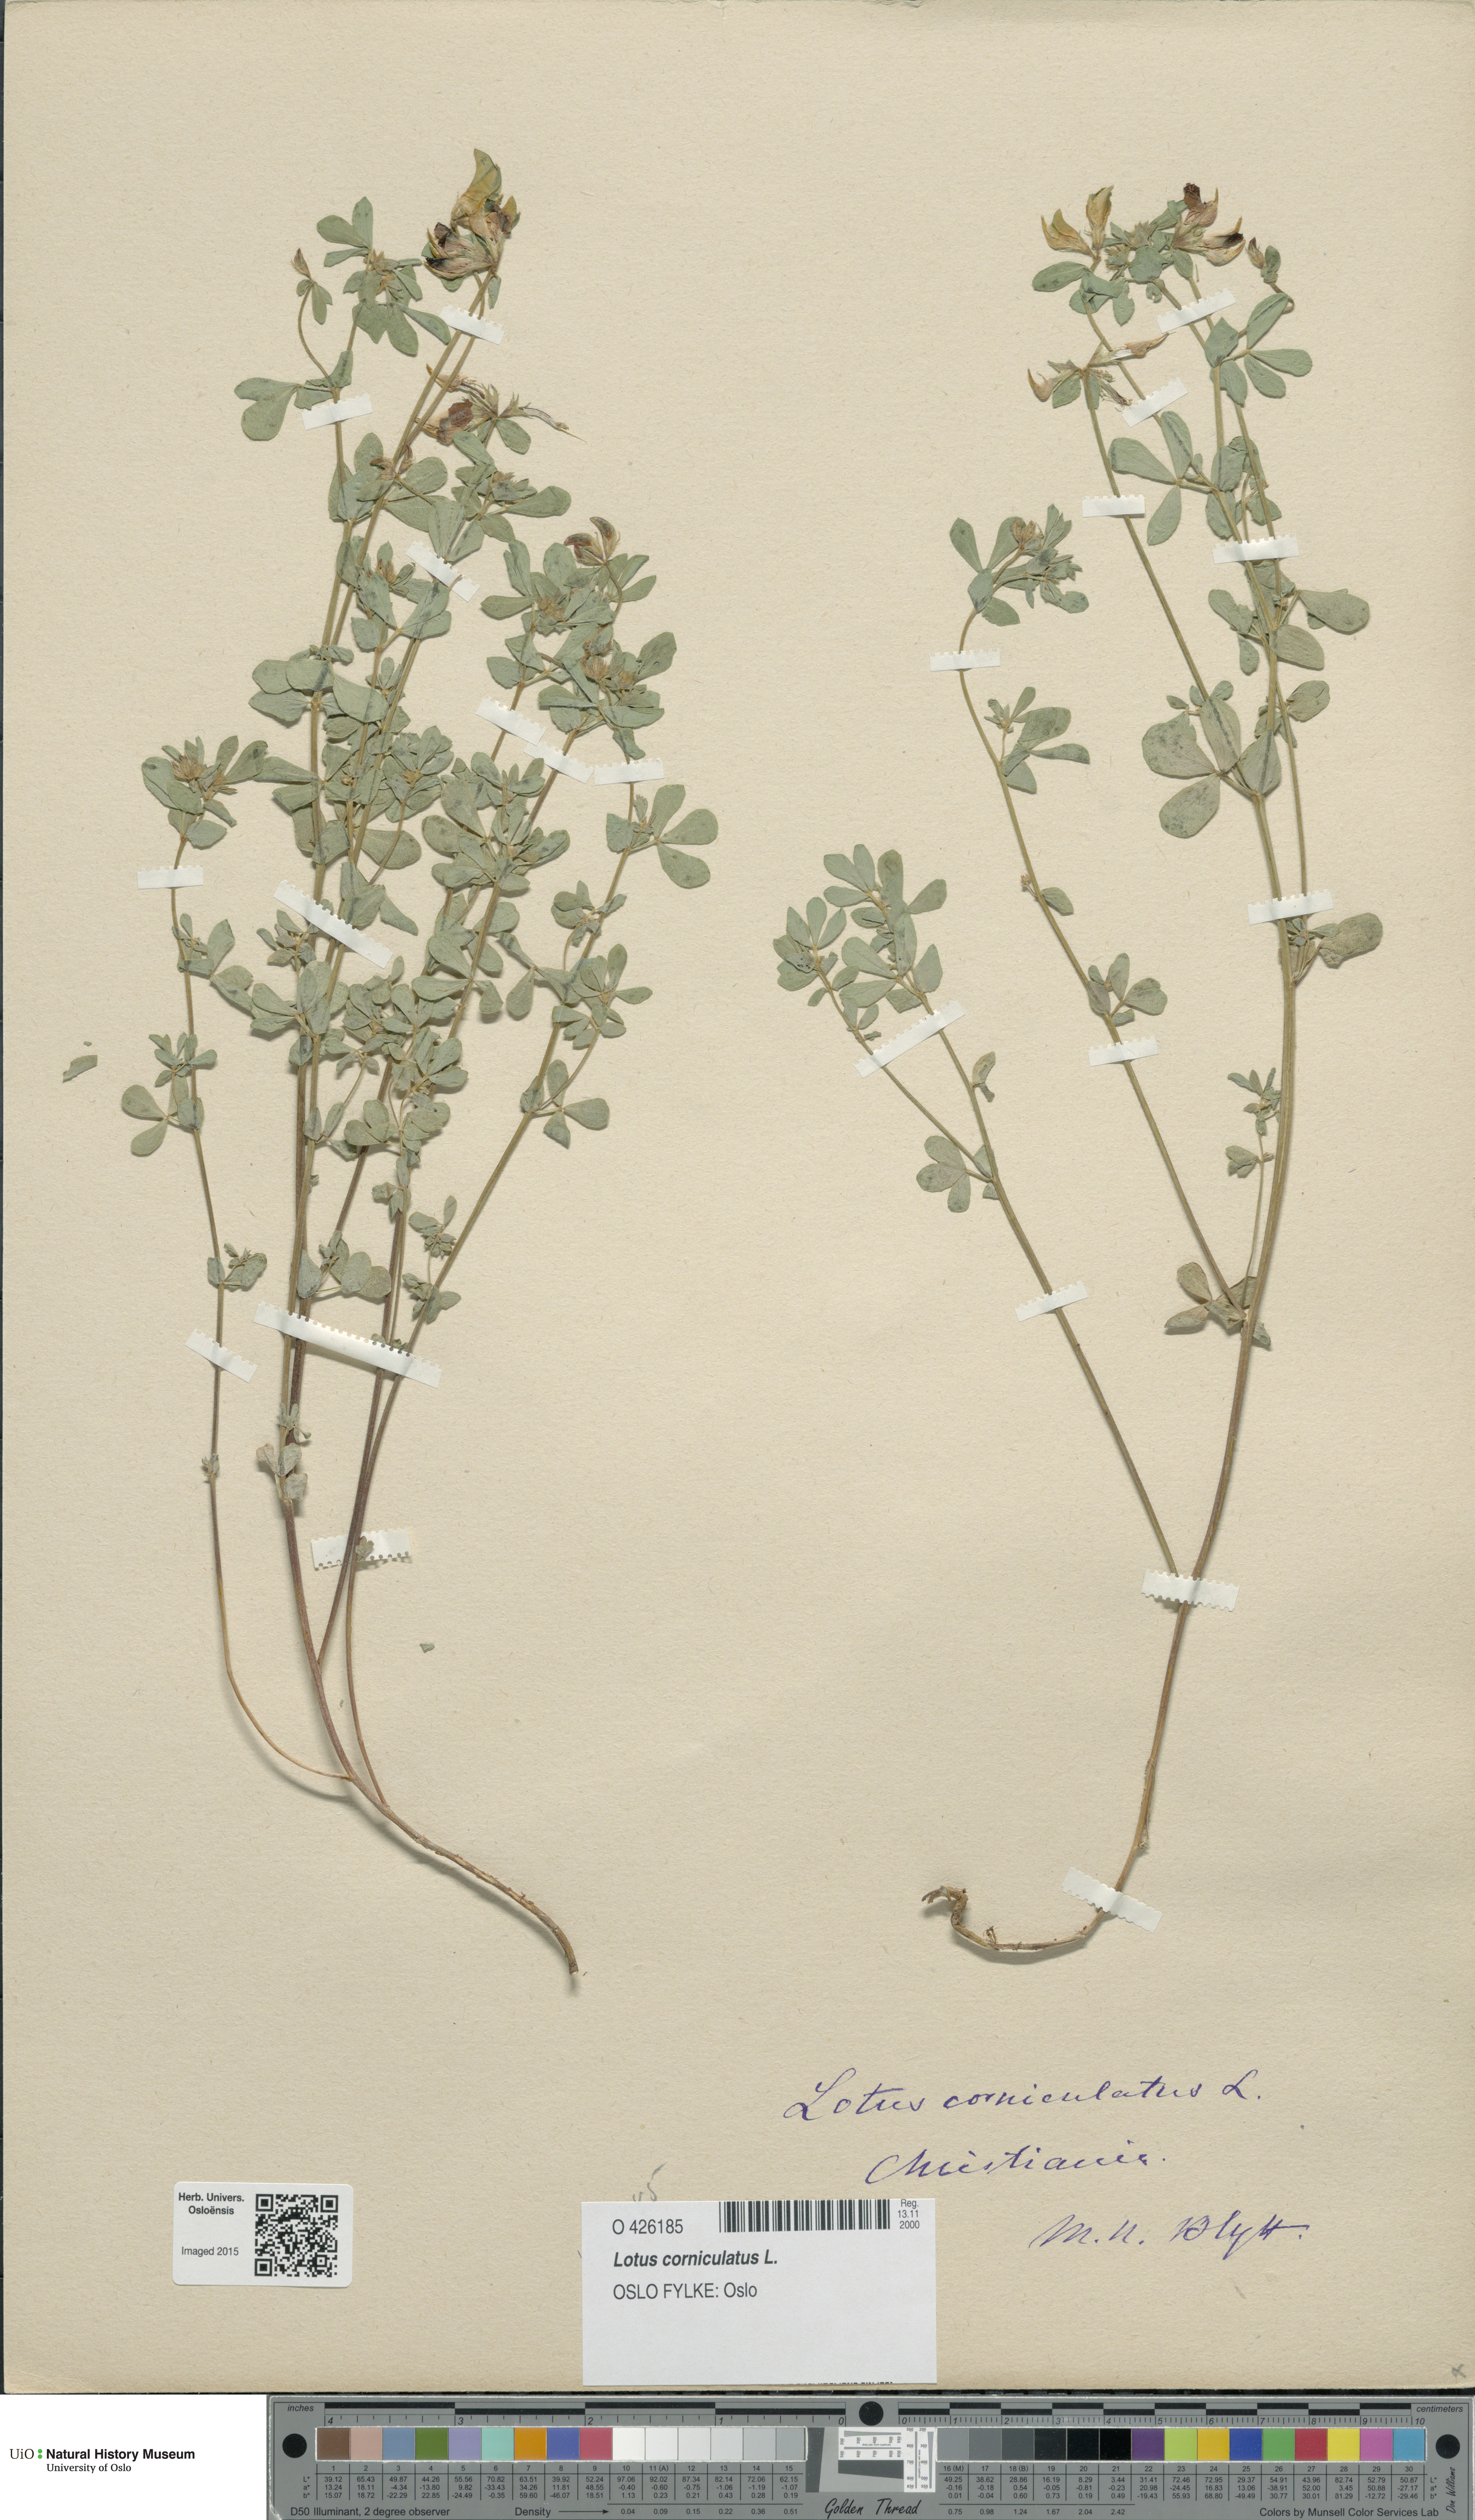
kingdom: Plantae
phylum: Tracheophyta
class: Magnoliopsida
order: Fabales
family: Fabaceae
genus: Lotus
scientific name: Lotus corniculatus
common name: Common bird's-foot-trefoil
